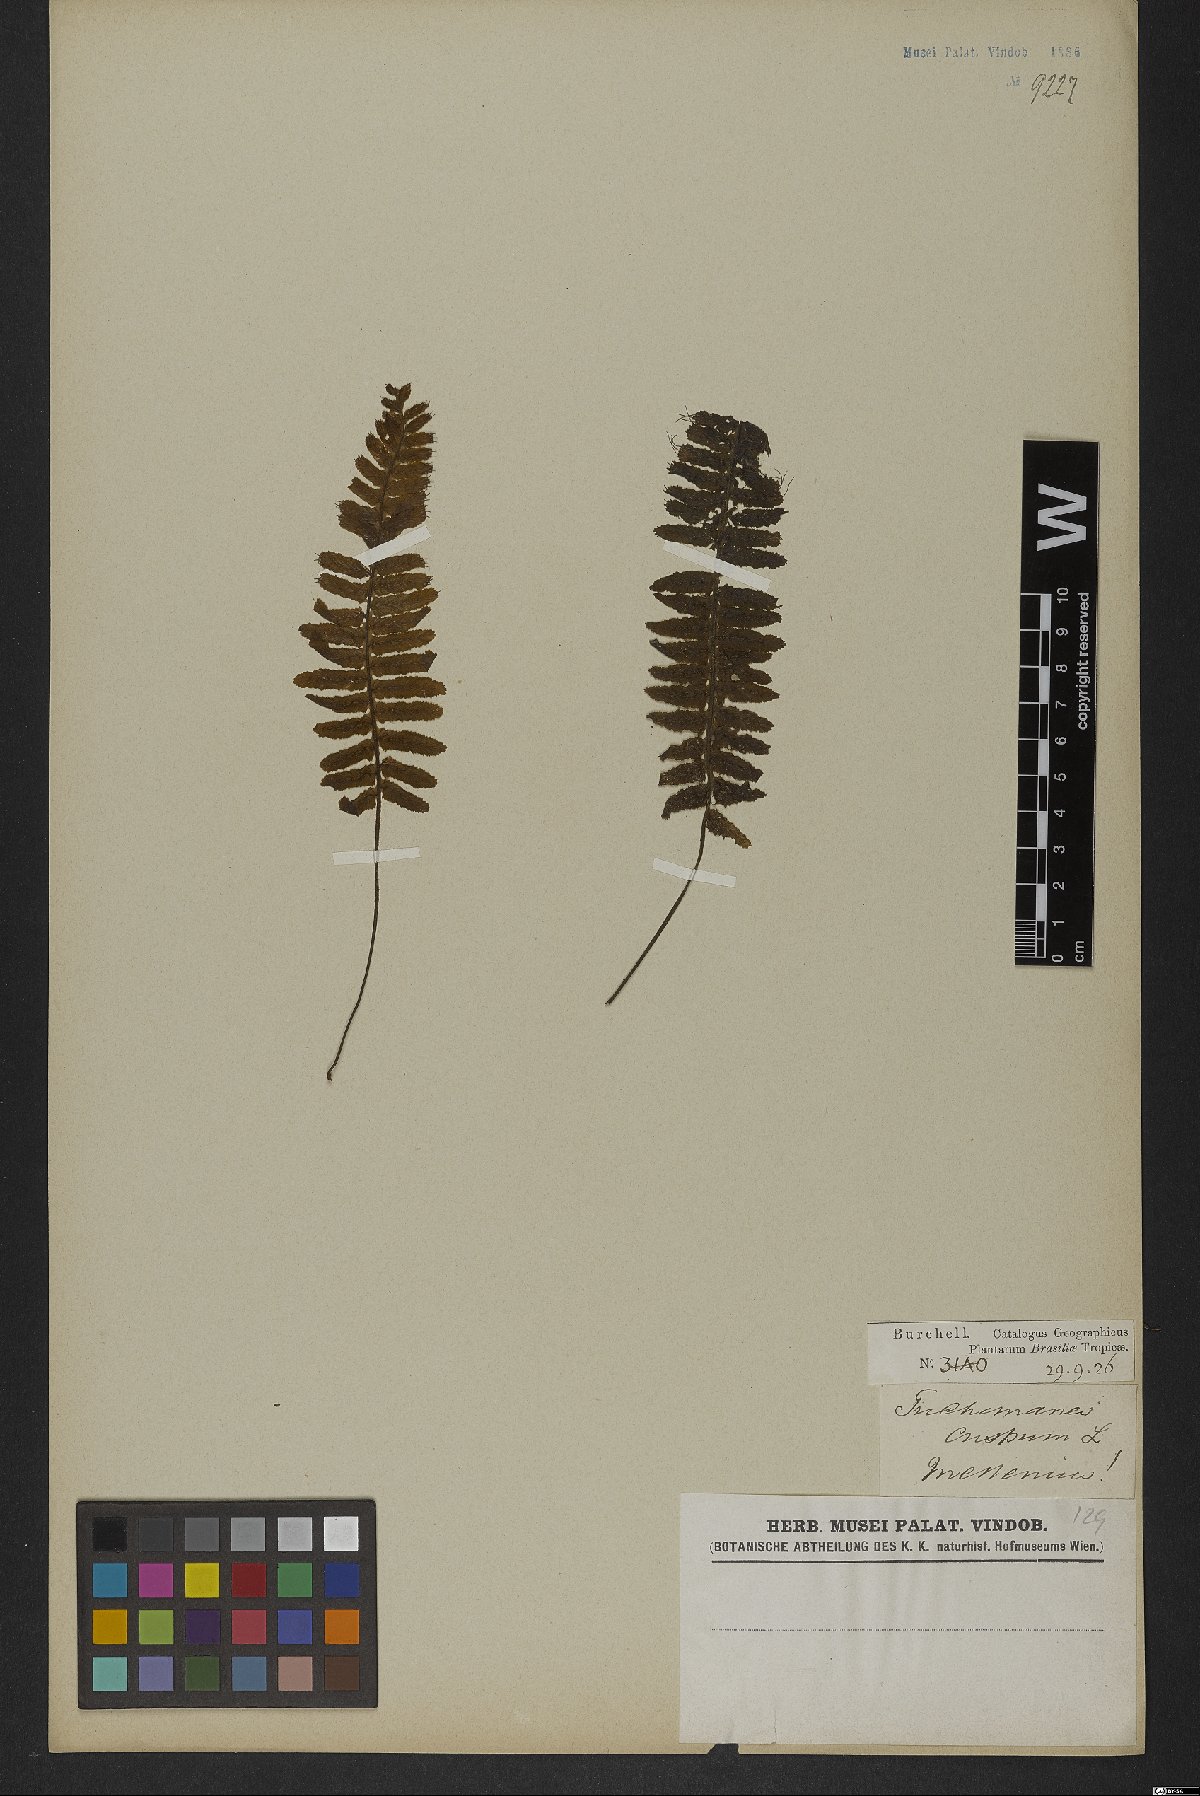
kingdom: Plantae
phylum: Tracheophyta
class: Polypodiopsida
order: Hymenophyllales
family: Hymenophyllaceae
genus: Trichomanes
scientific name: Trichomanes crispum
